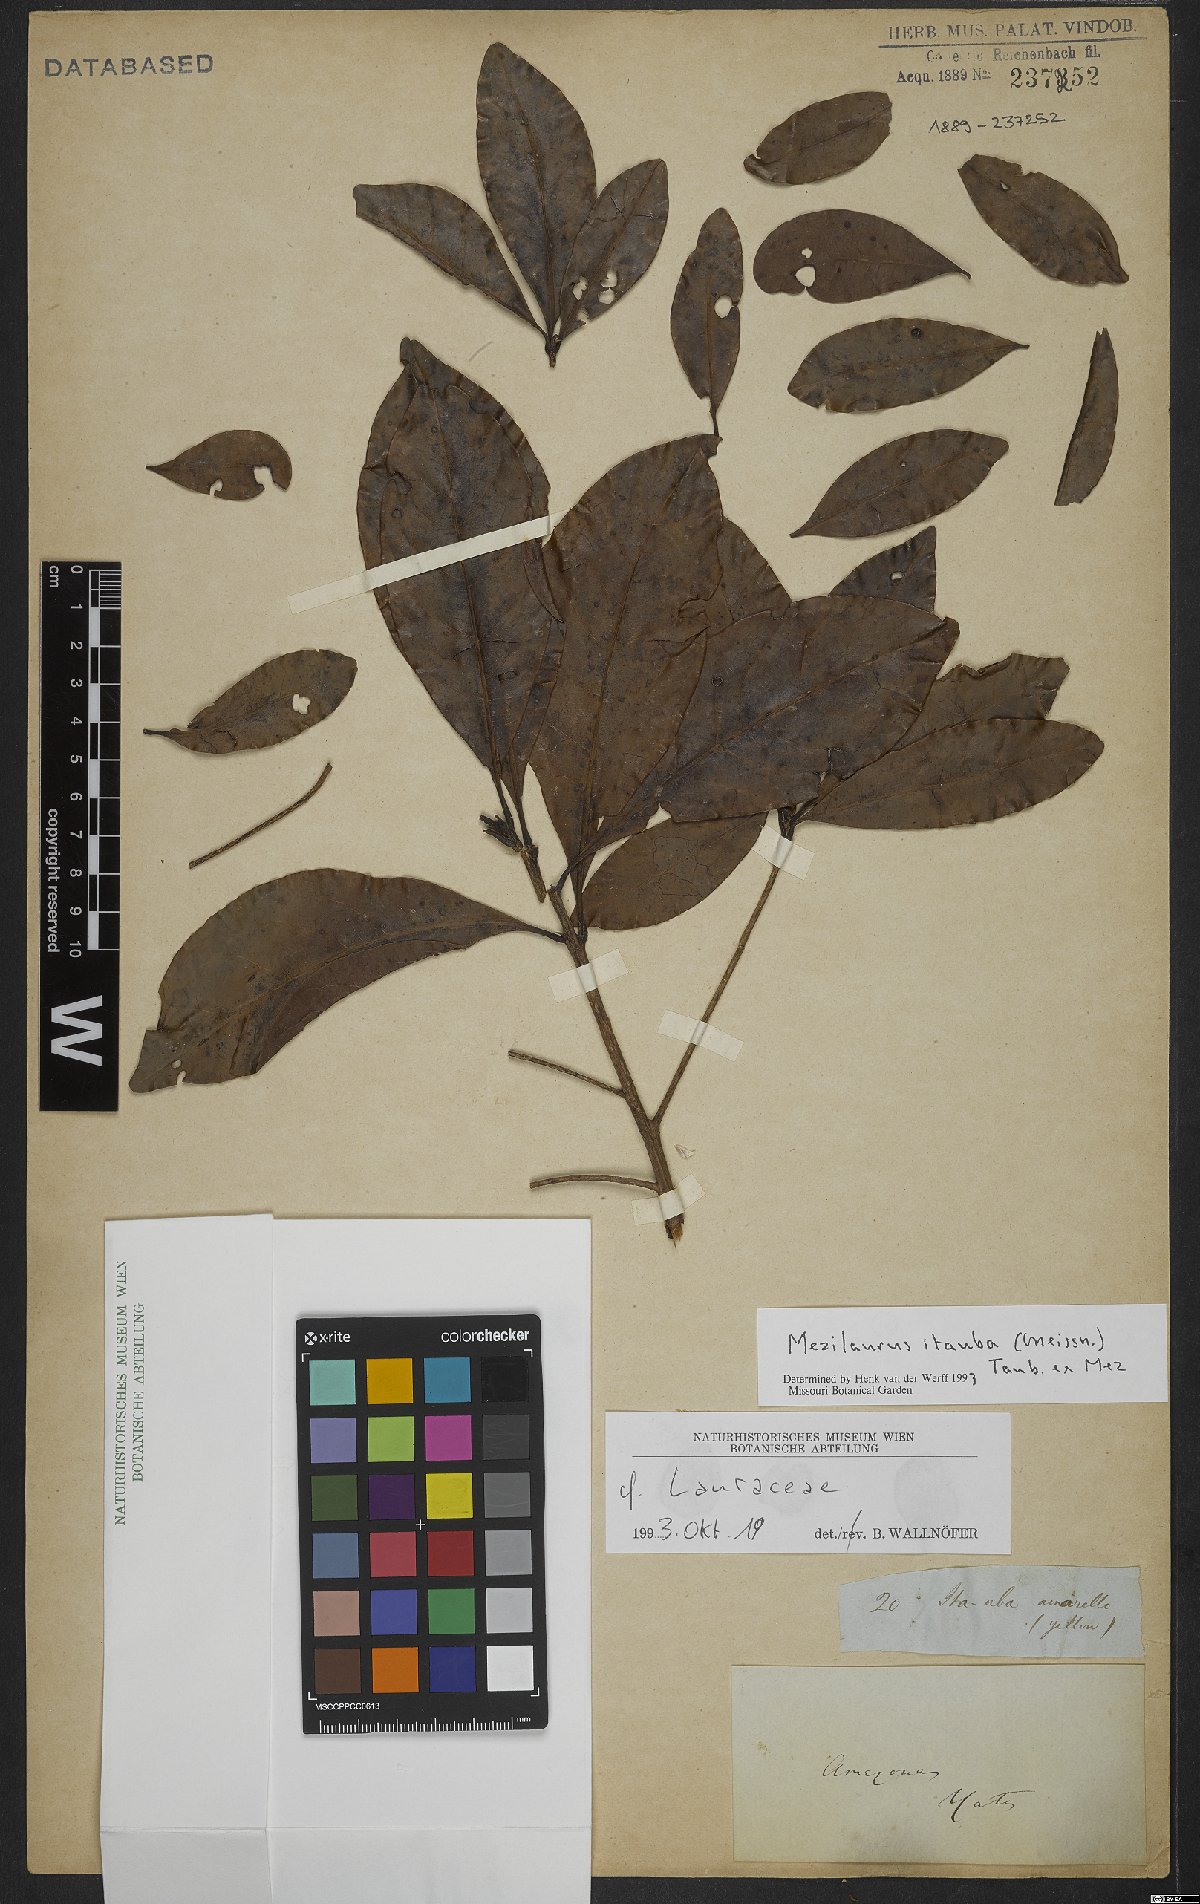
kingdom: Plantae
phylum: Tracheophyta
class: Magnoliopsida
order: Laurales
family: Lauraceae
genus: Mezilaurus
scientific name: Mezilaurus ita-uba
